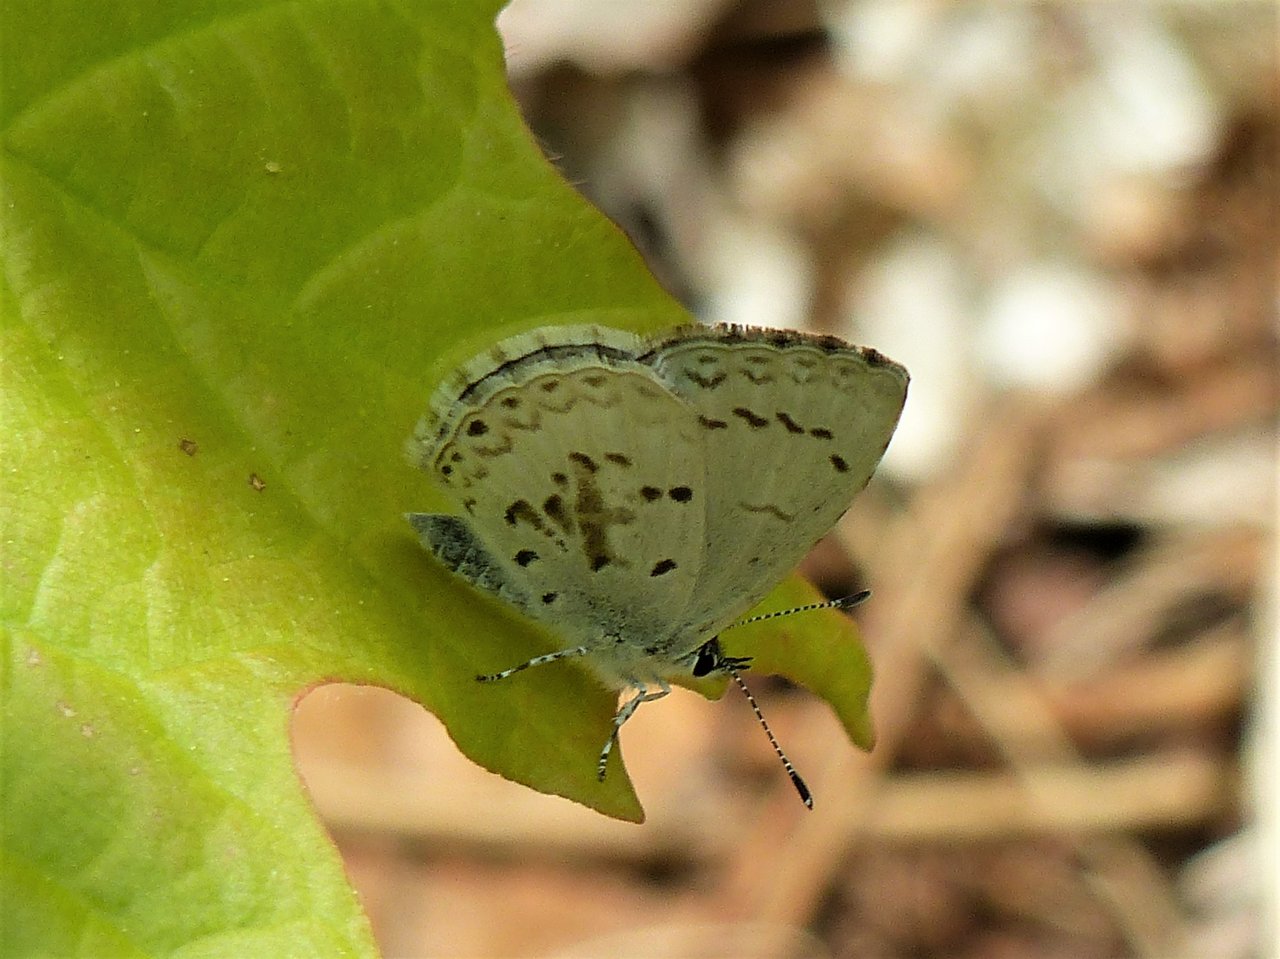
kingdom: Animalia
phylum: Arthropoda
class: Insecta
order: Lepidoptera
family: Lycaenidae
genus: Celastrina
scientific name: Celastrina lucia
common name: Northern Spring Azure
